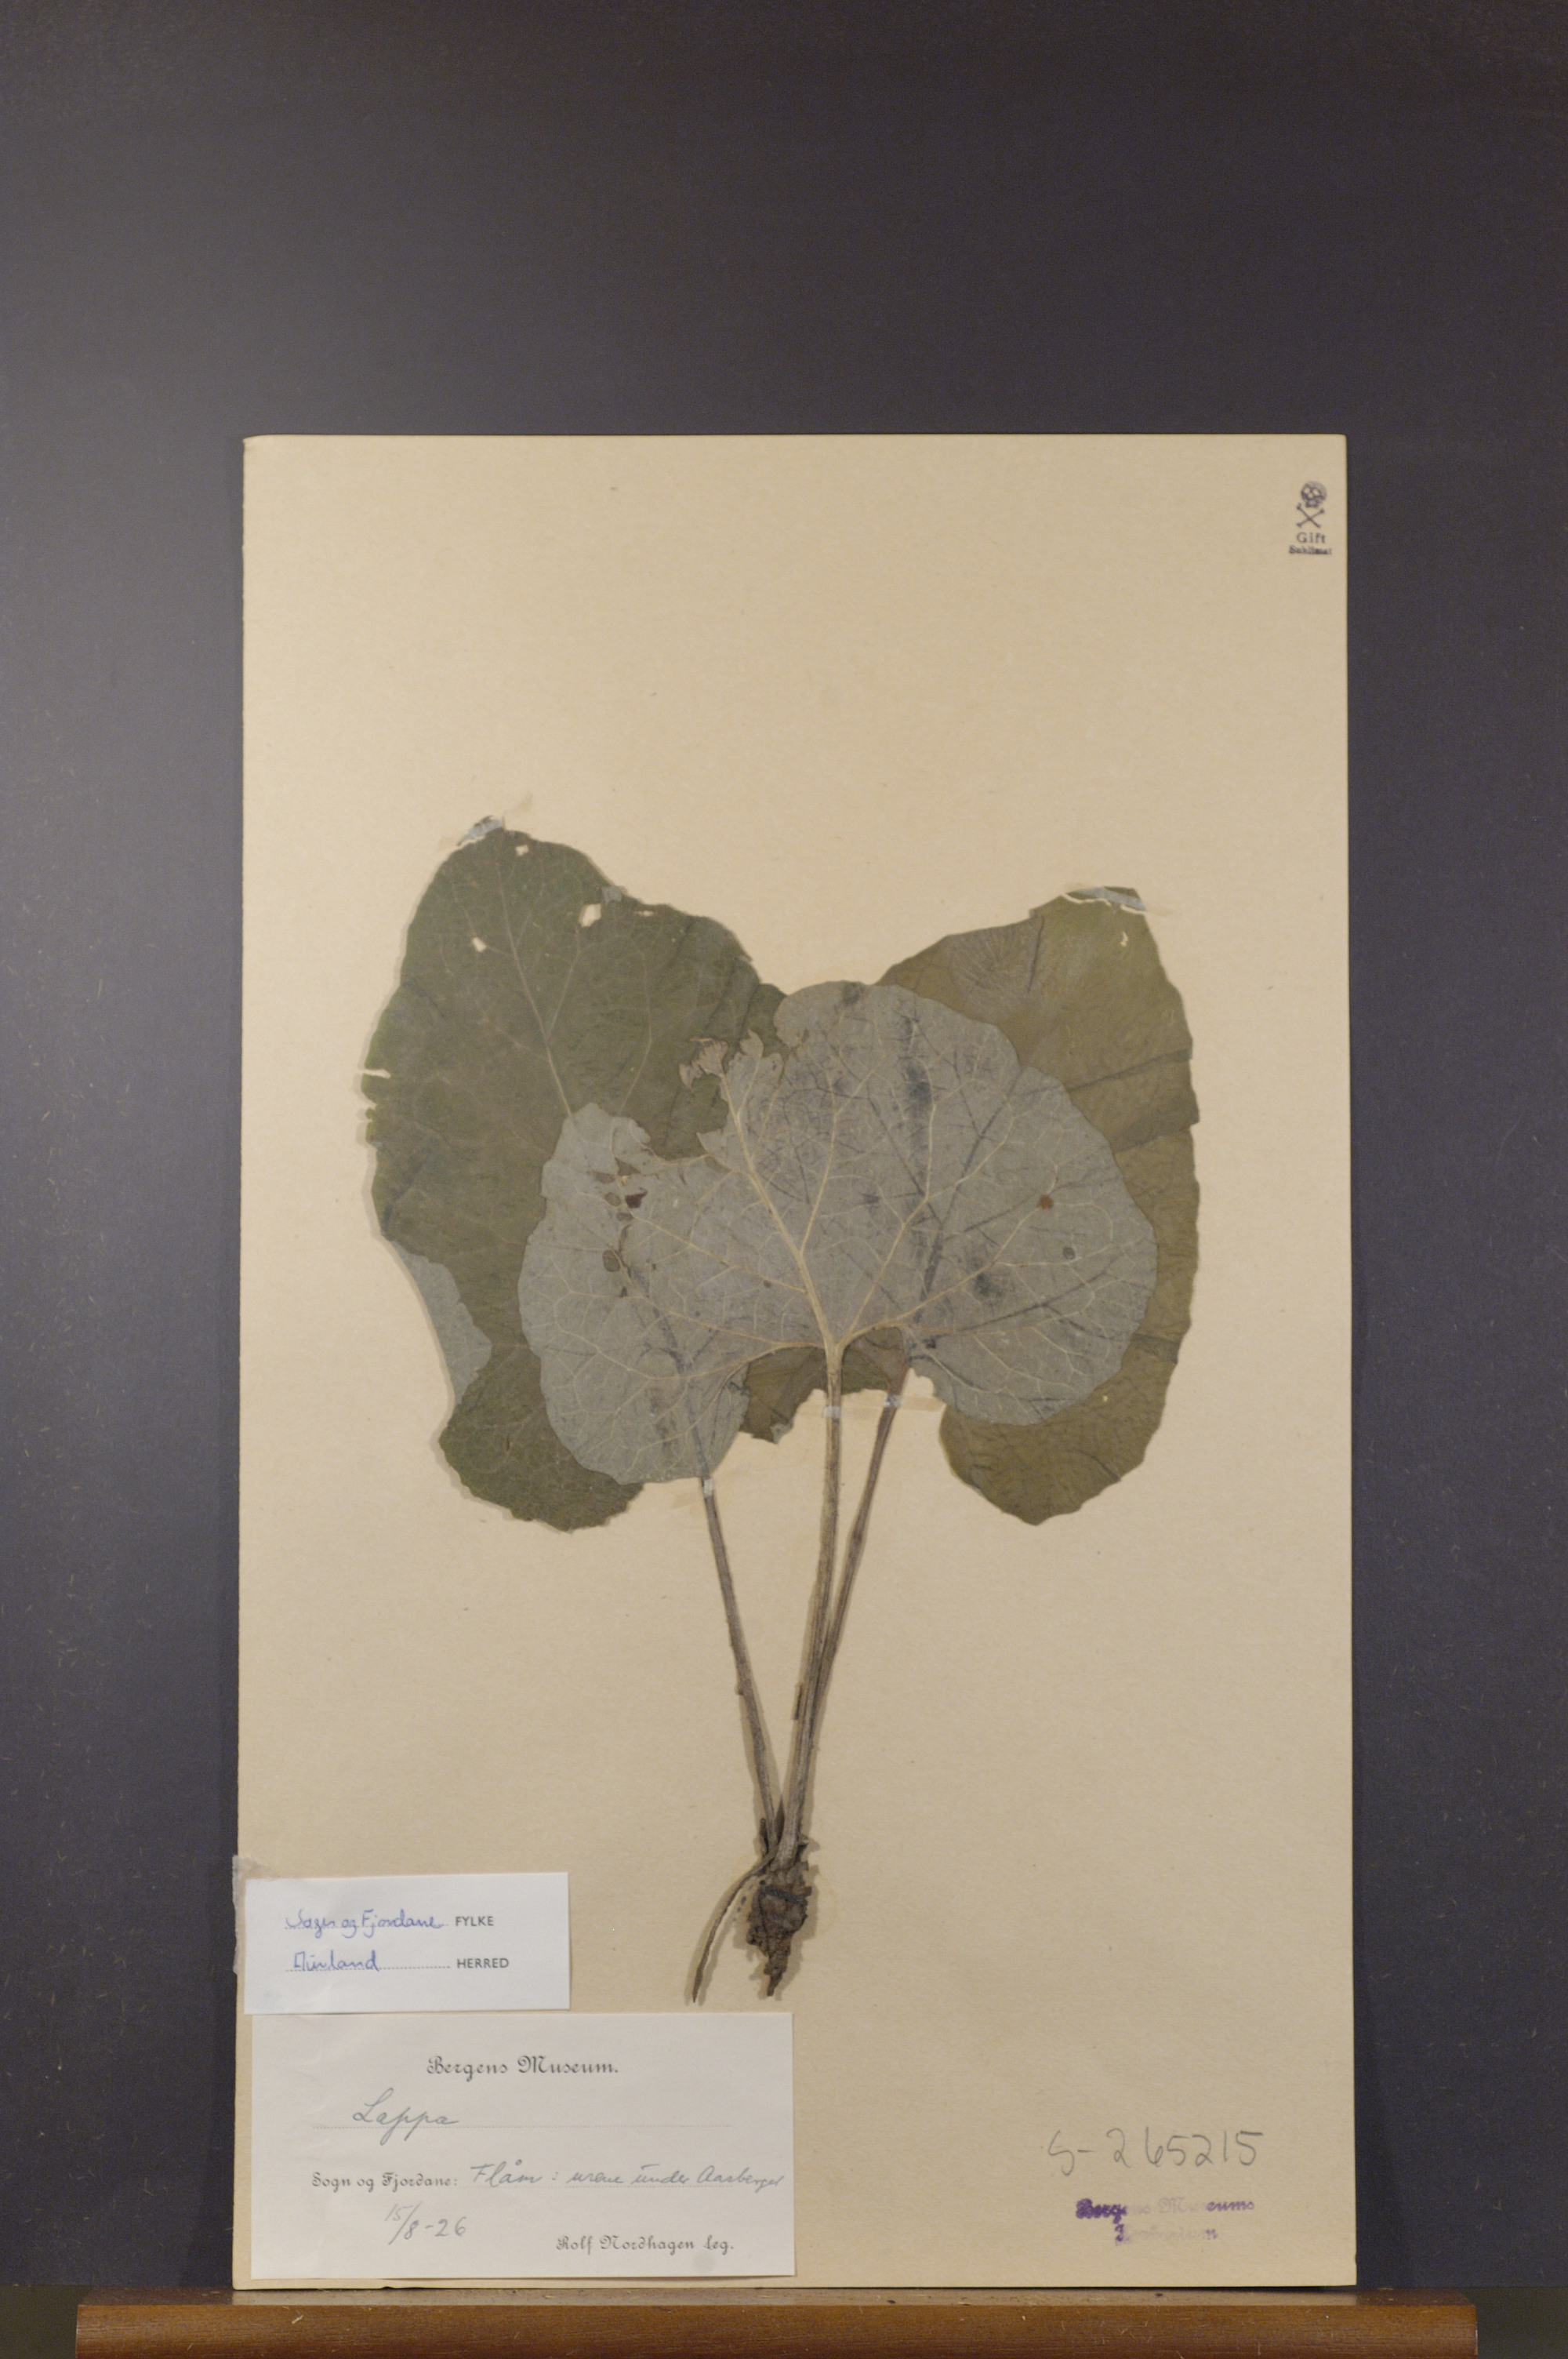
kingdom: Plantae
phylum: Tracheophyta
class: Magnoliopsida
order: Asterales
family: Asteraceae
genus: Arctium
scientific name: Arctium
